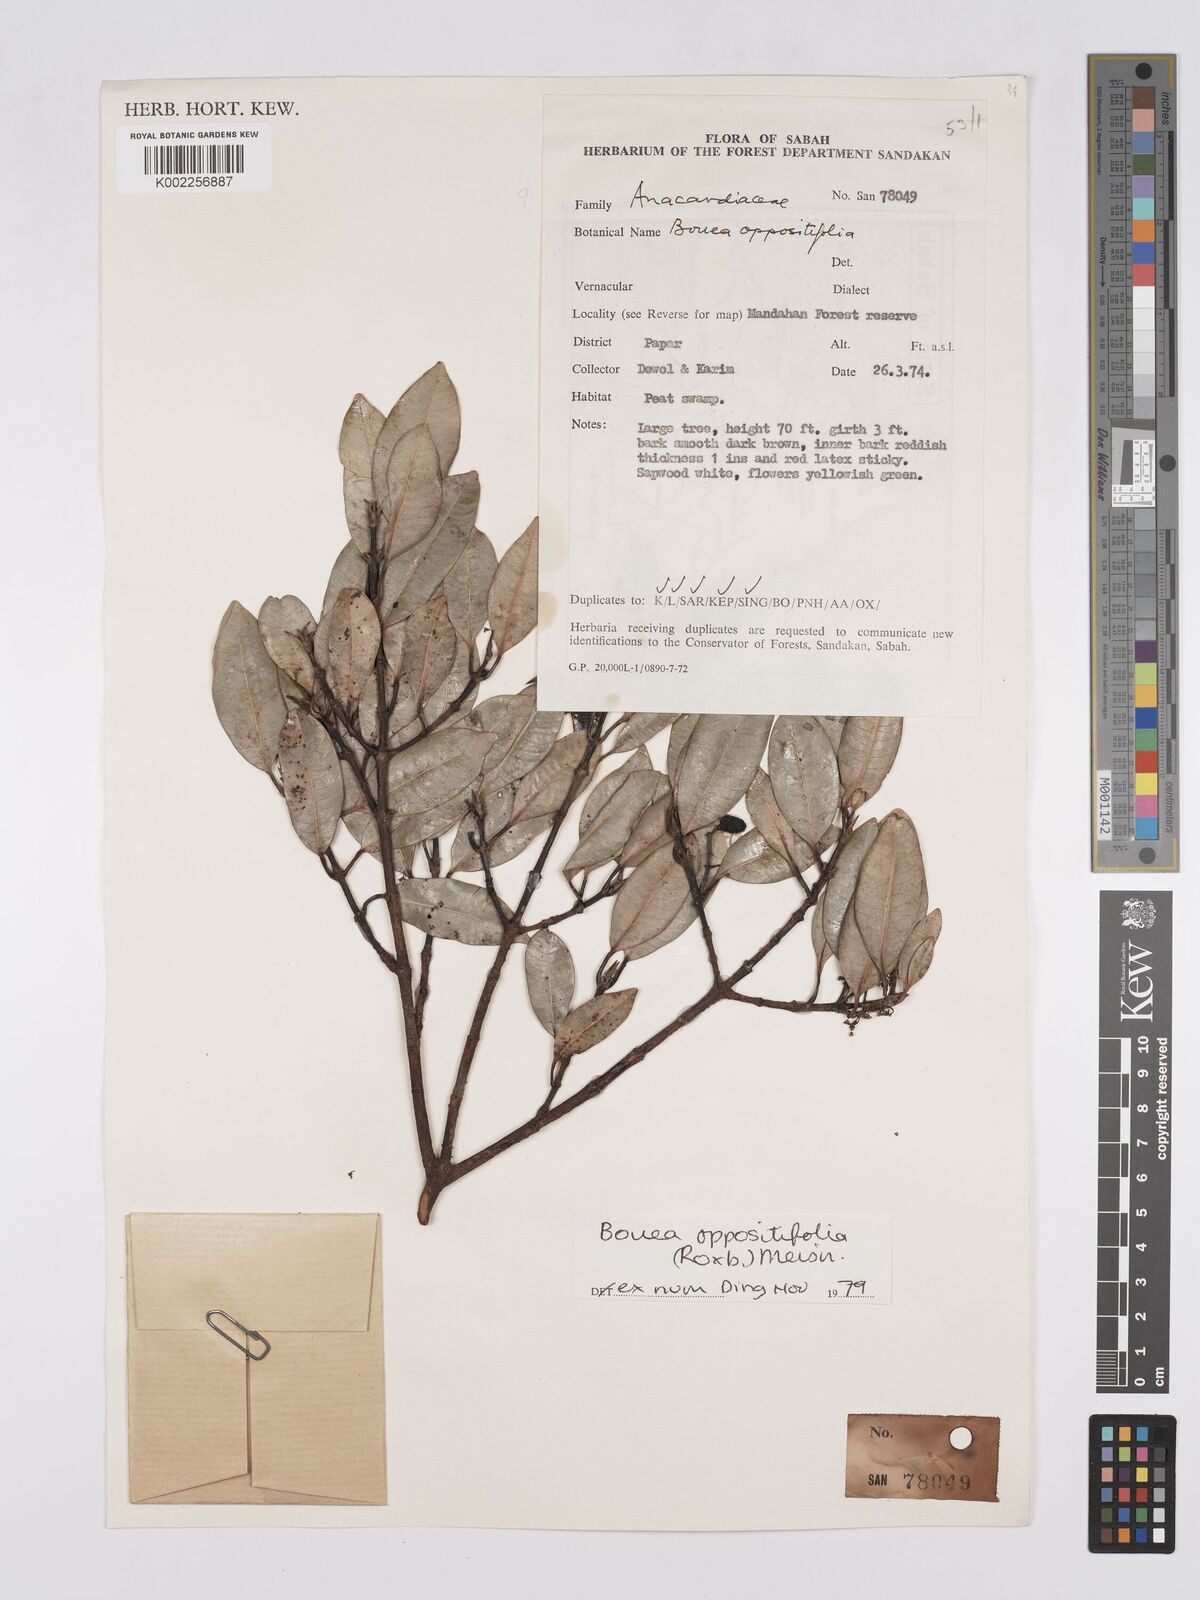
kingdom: Plantae
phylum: Tracheophyta
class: Magnoliopsida
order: Sapindales
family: Anacardiaceae
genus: Bouea
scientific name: Bouea oppositifolia
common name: Narrow-leaved kundang
